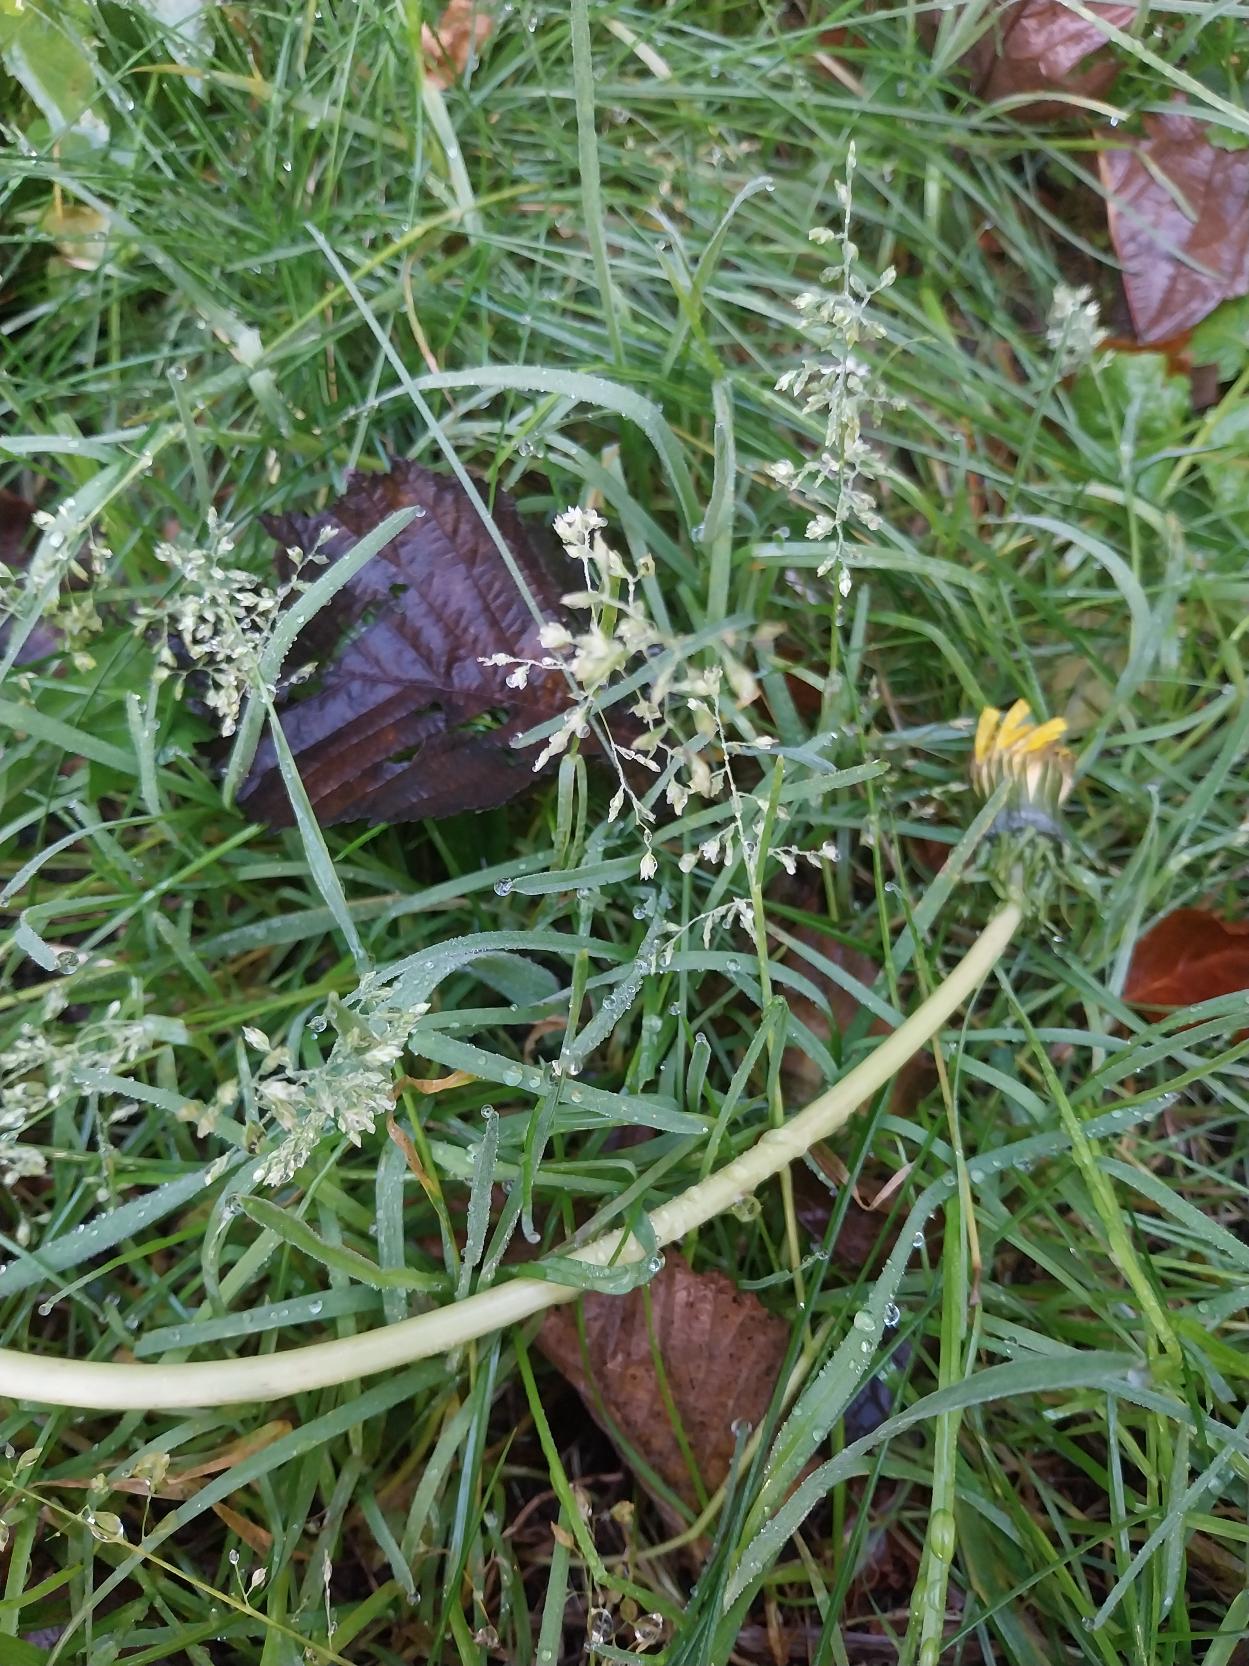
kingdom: Plantae
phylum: Tracheophyta
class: Liliopsida
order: Poales
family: Poaceae
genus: Poa
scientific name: Poa annua
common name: Enårig rapgræs
